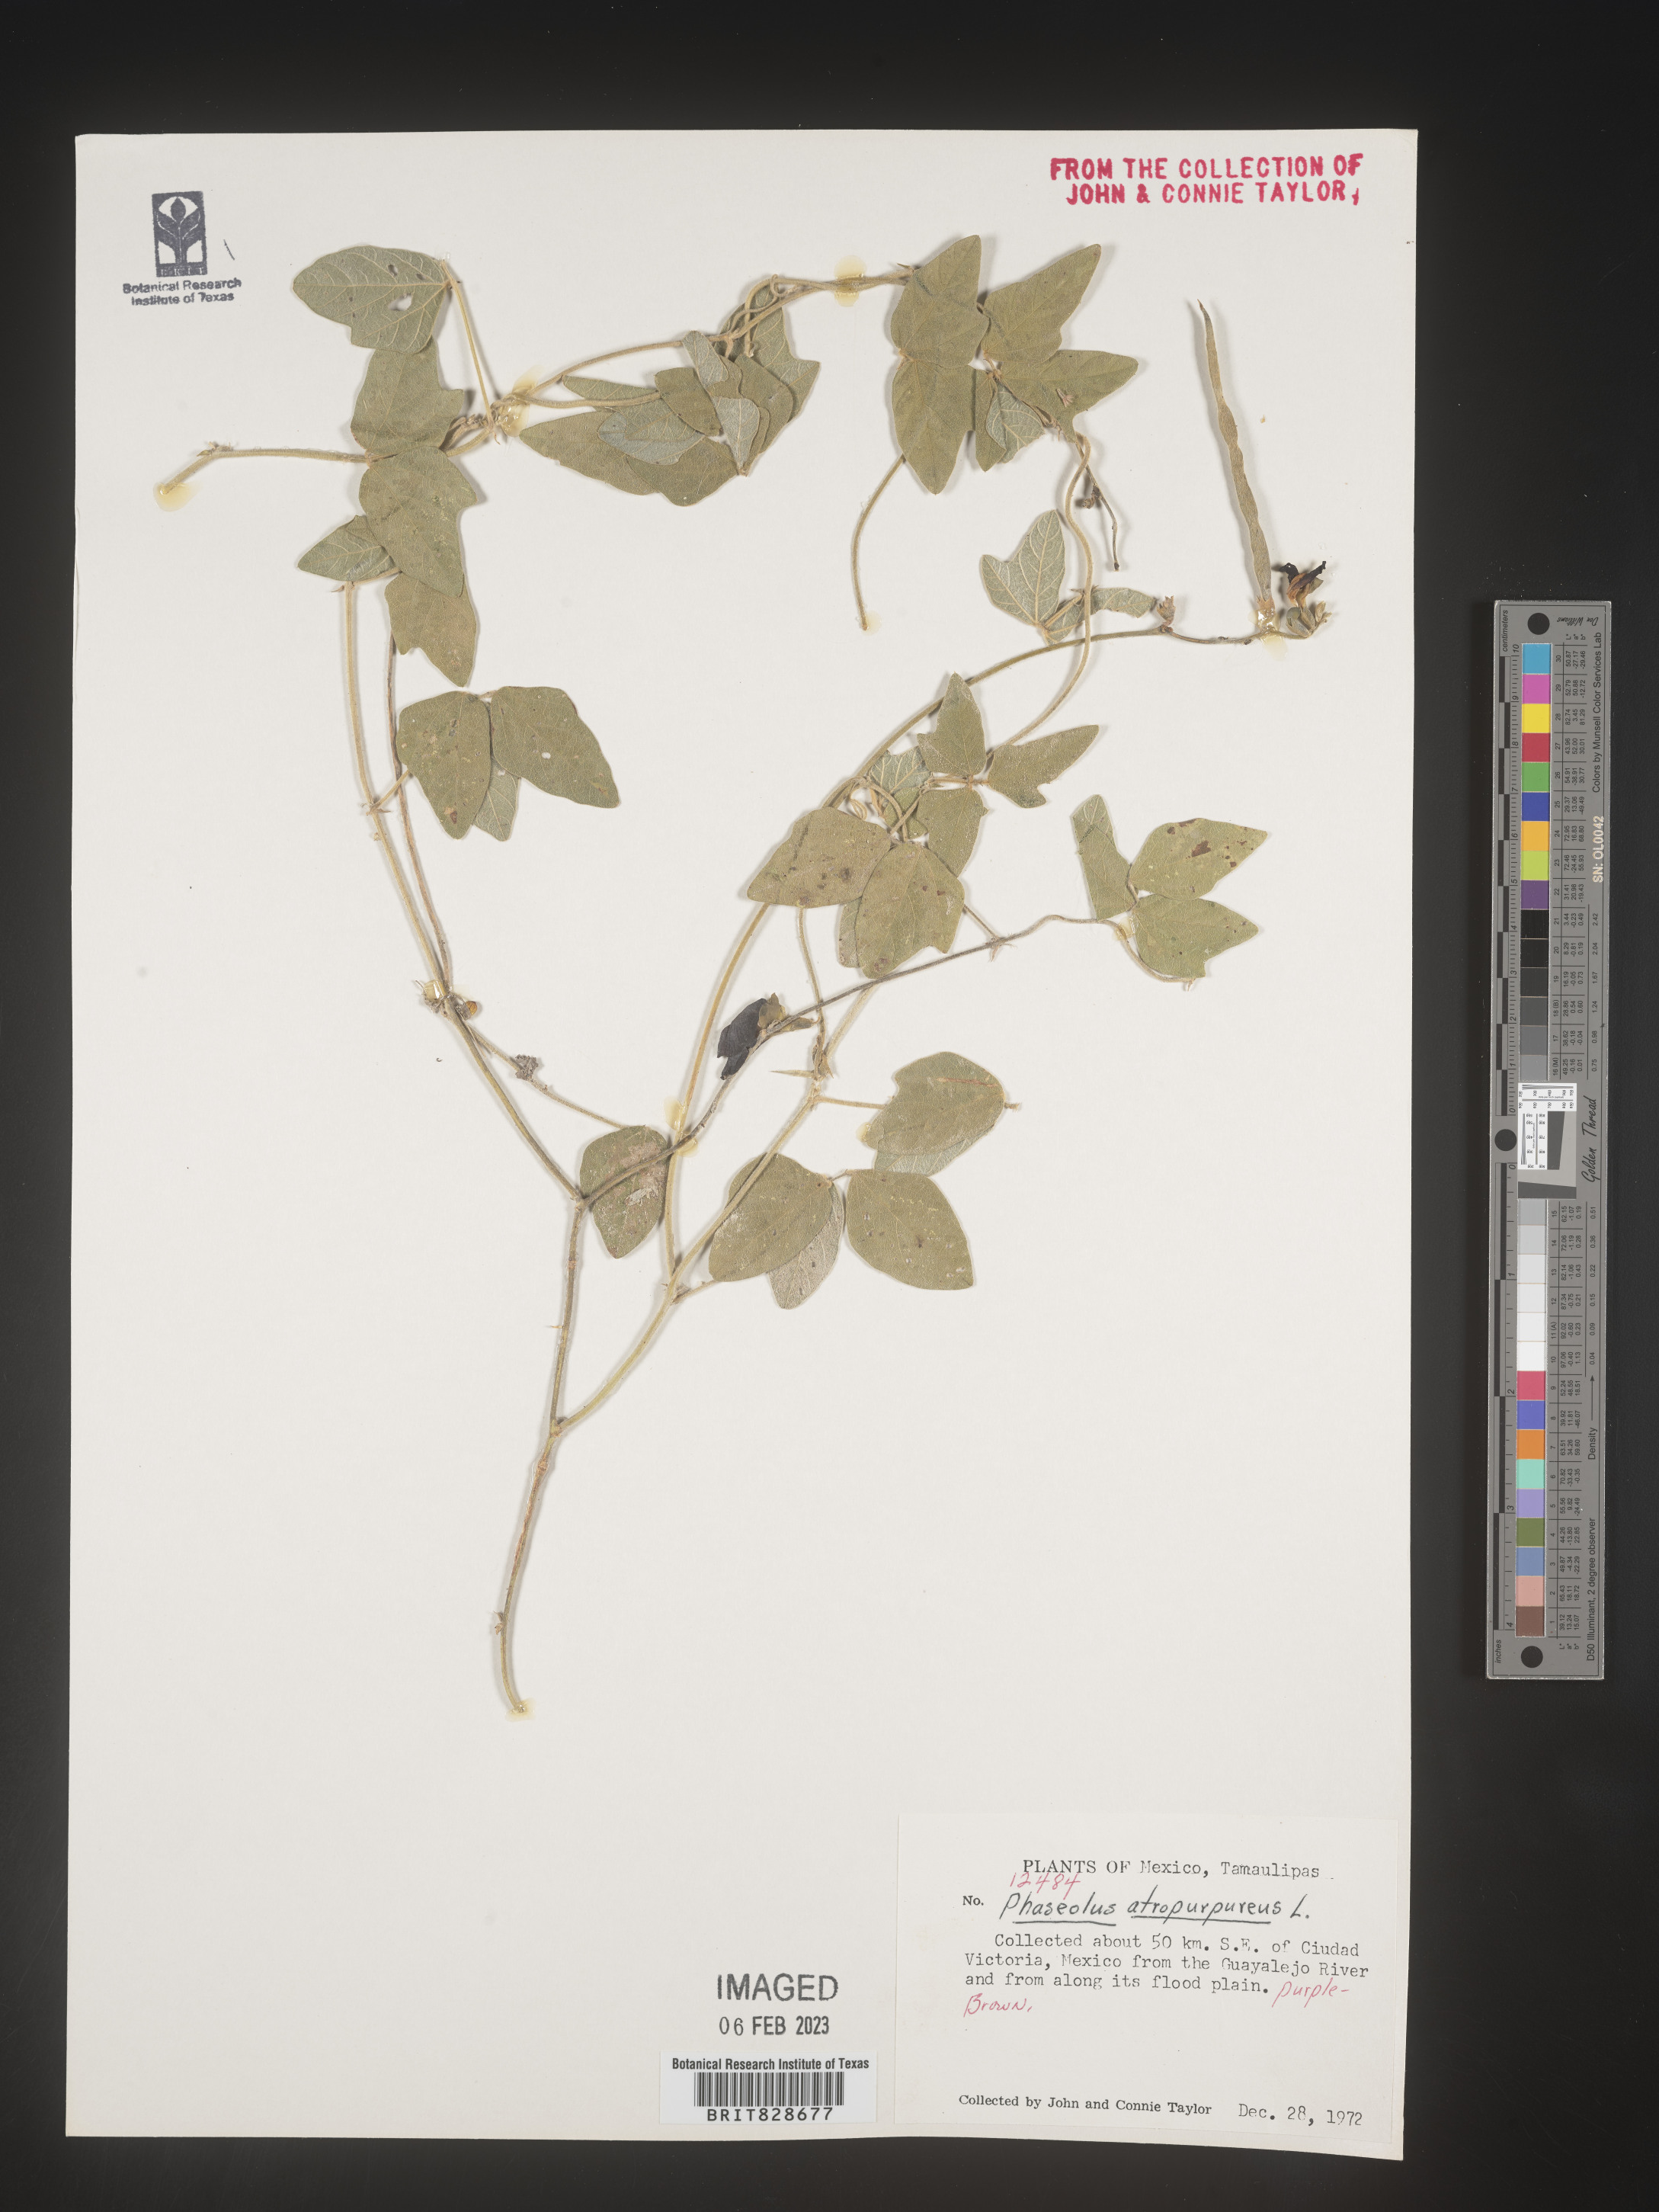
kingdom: Plantae
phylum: Tracheophyta
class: Magnoliopsida
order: Fabales
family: Fabaceae
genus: Phaseolus
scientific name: Phaseolus
